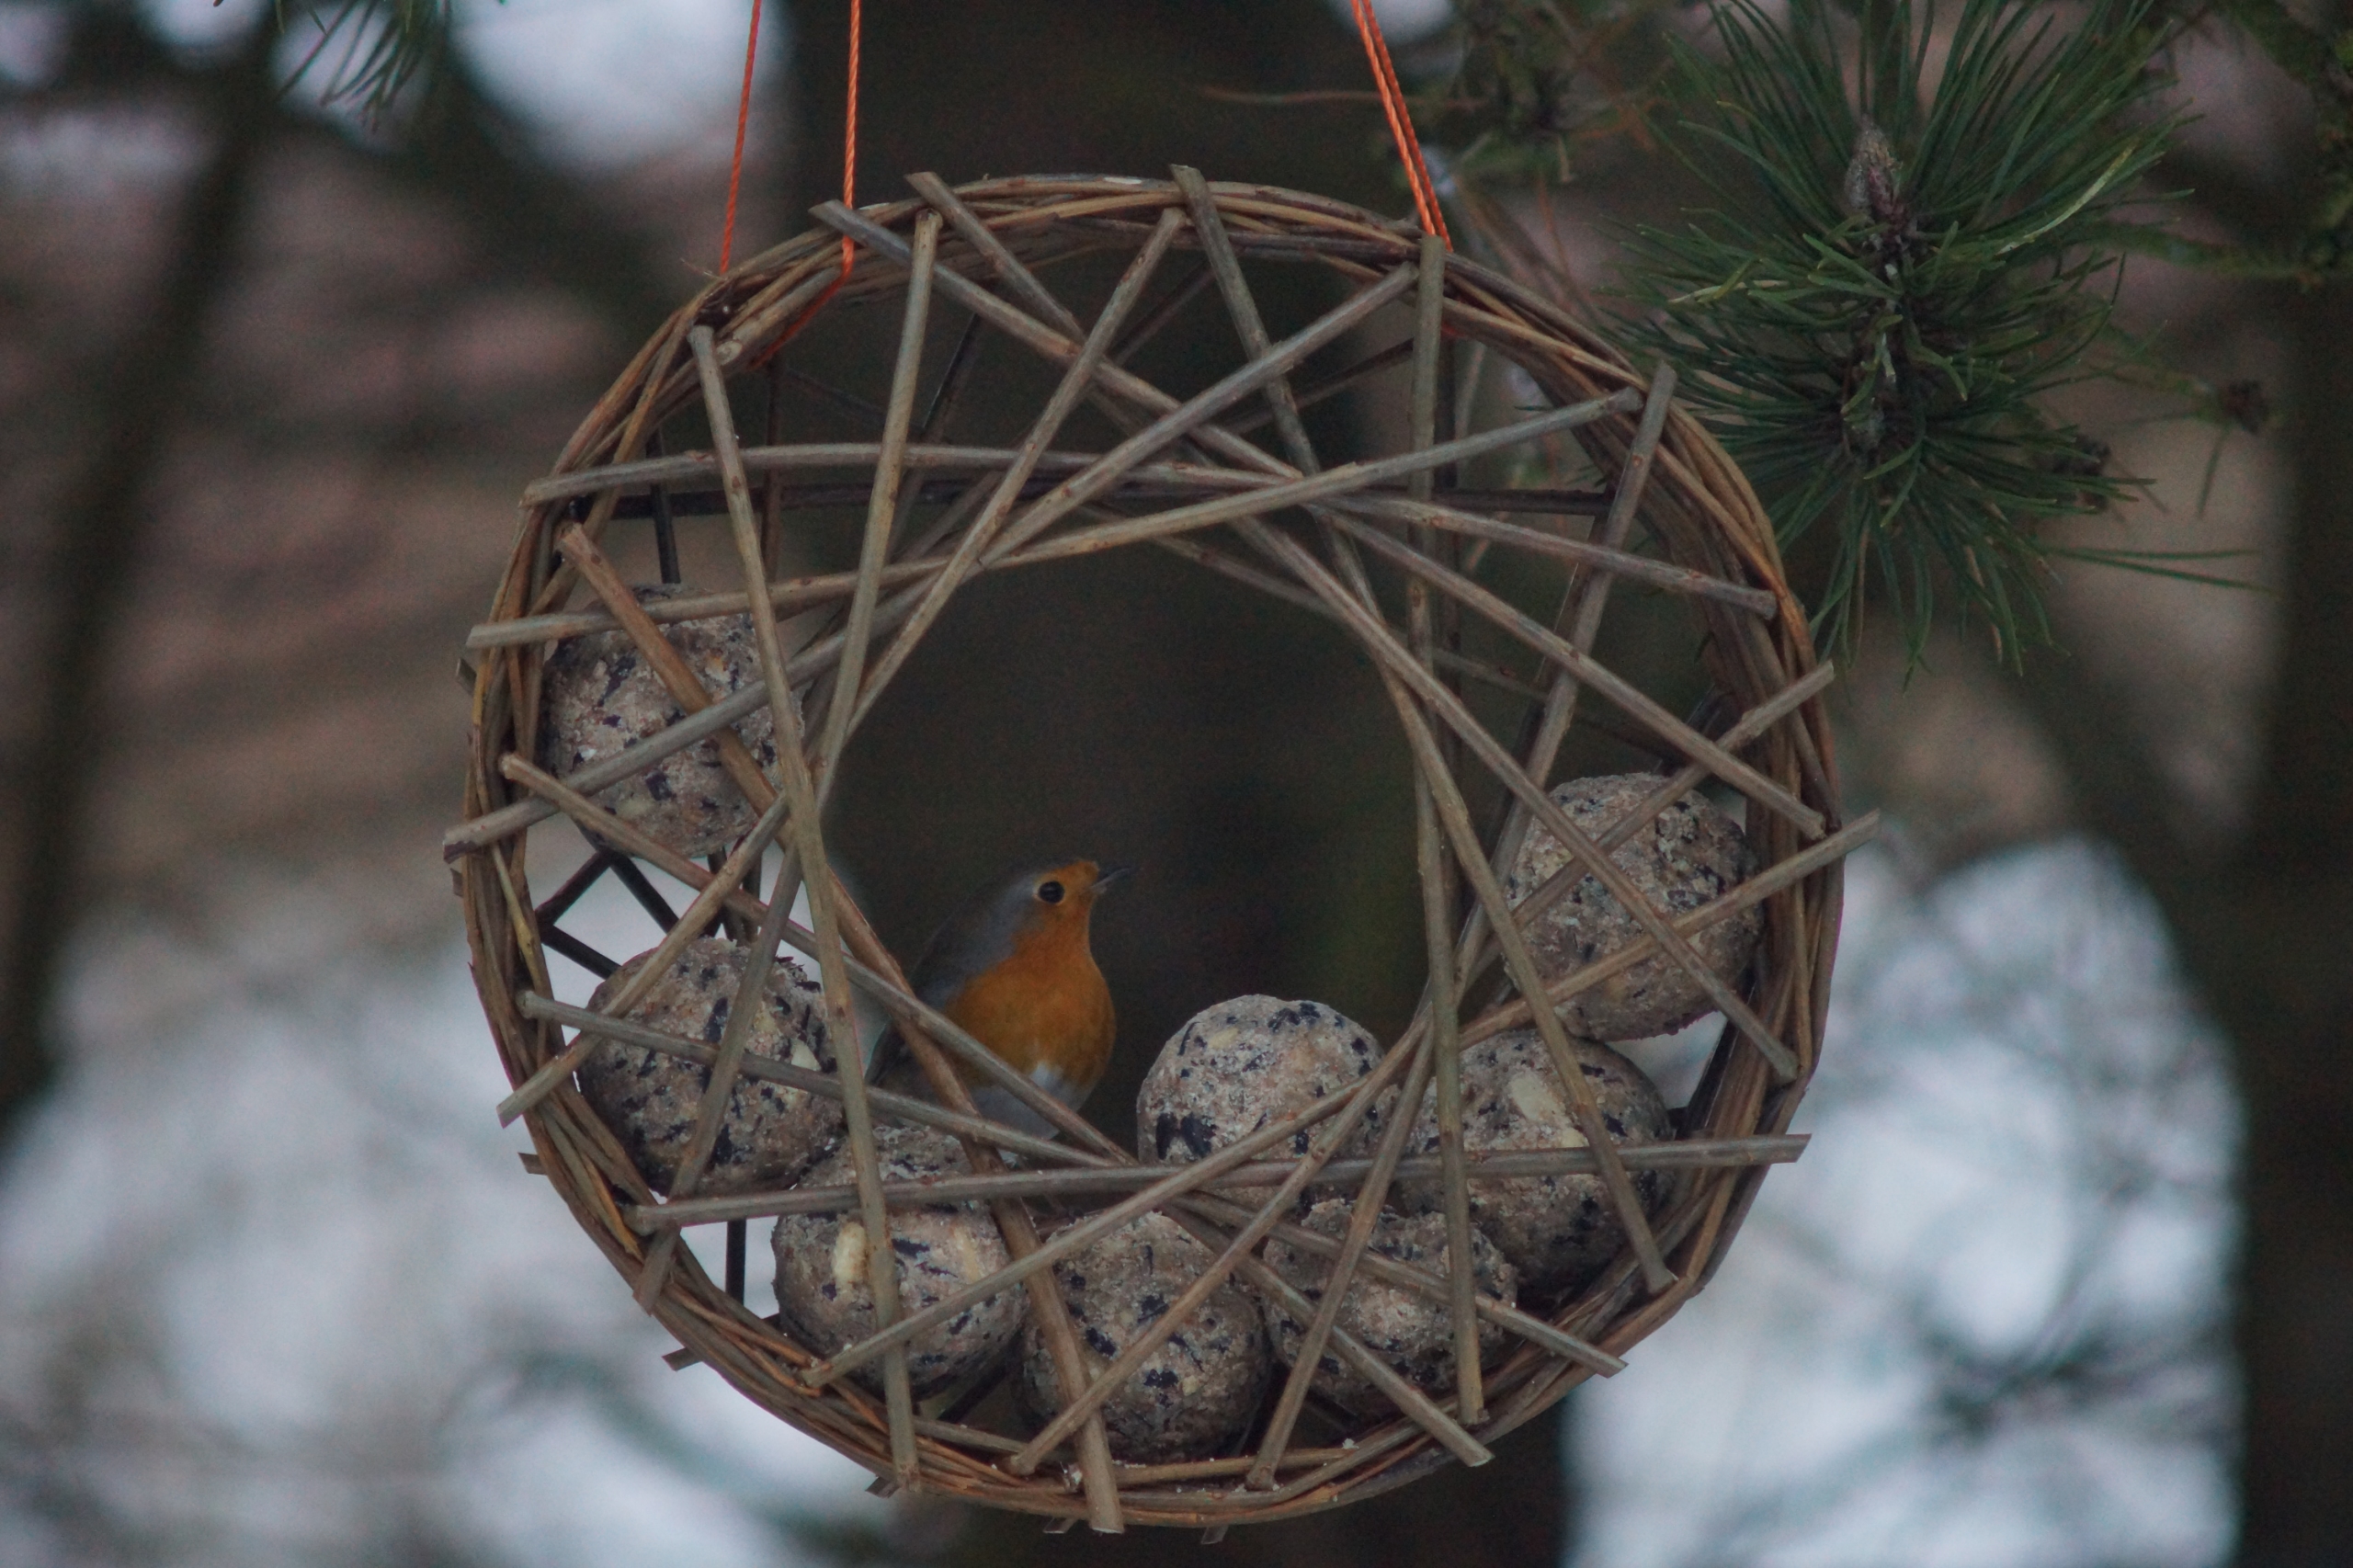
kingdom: Animalia
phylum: Chordata
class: Aves
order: Passeriformes
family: Muscicapidae
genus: Erithacus
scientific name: Erithacus rubecula
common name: Rødhals/rødkælk
